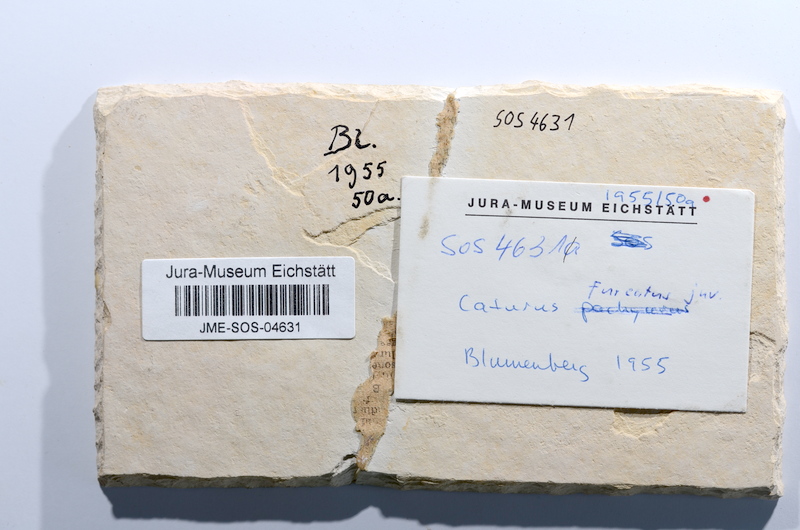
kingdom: Animalia
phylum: Chordata
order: Amiiformes
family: Caturidae
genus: Caturus
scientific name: Caturus furcatus
